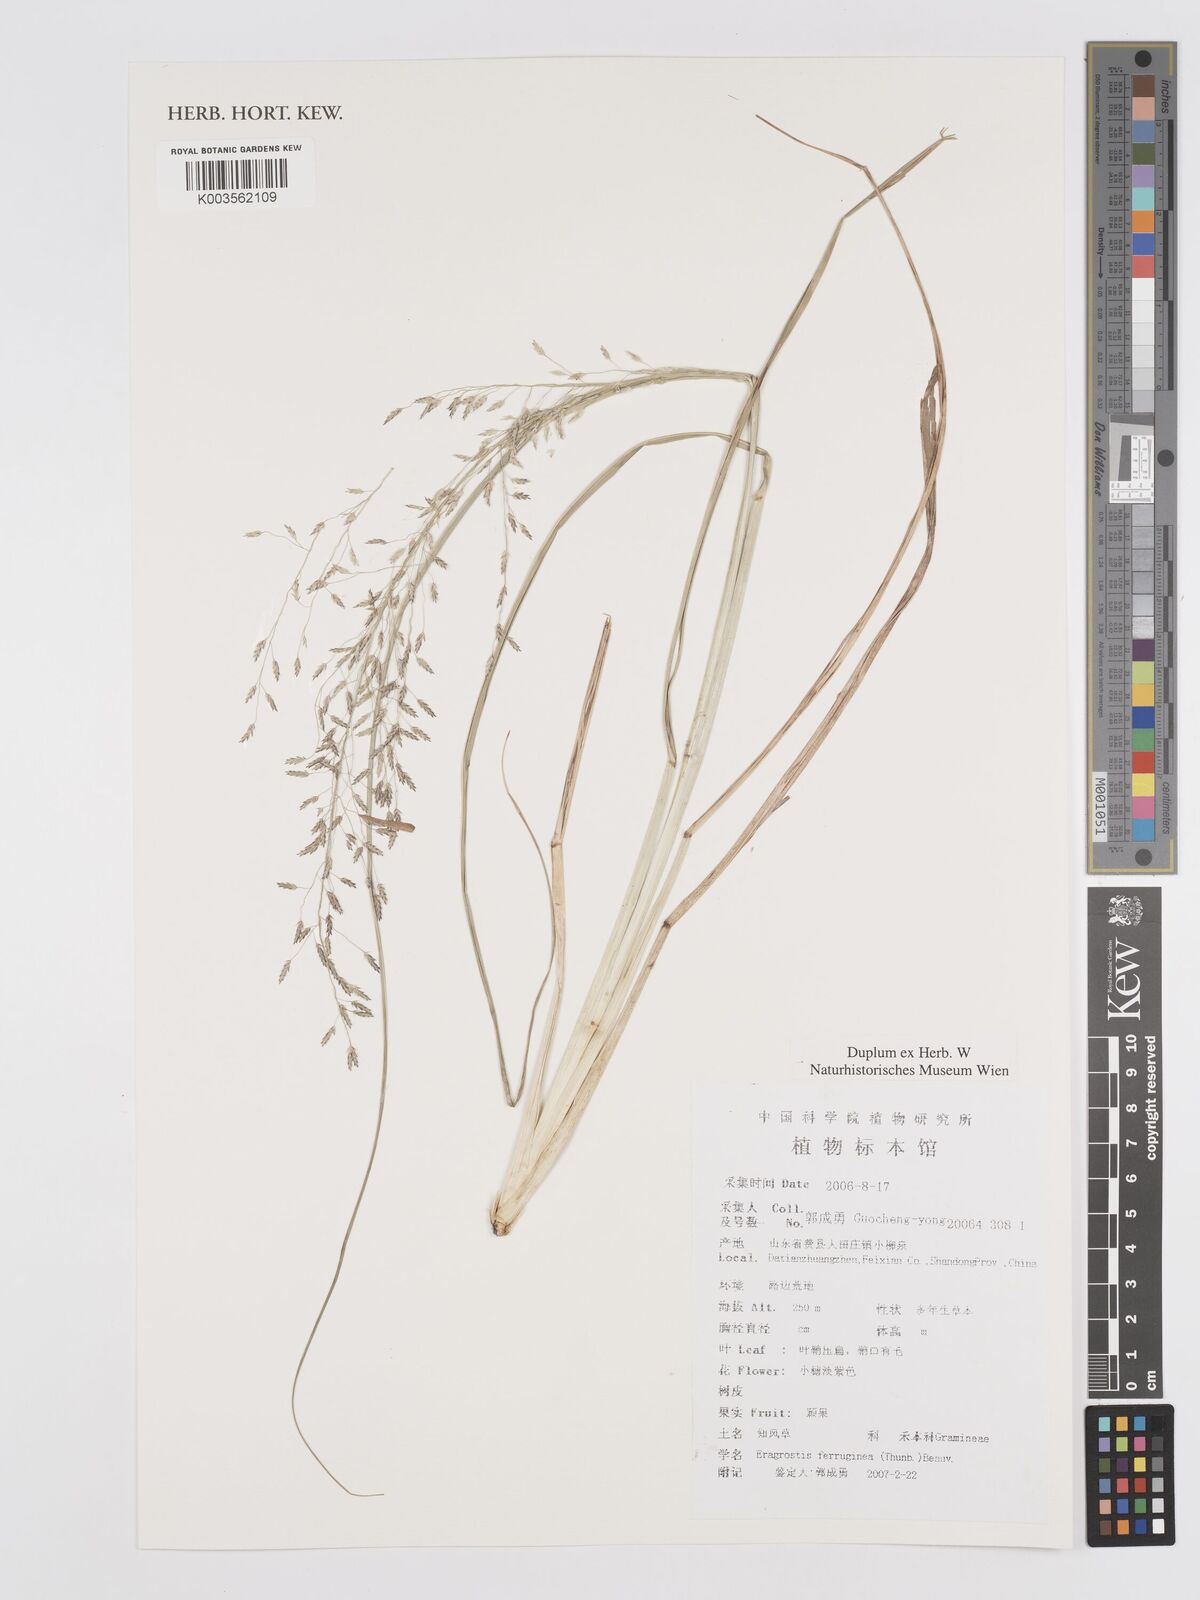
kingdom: Plantae
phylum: Tracheophyta
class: Liliopsida
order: Poales
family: Poaceae
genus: Eragrostis
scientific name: Eragrostis ferruginea
